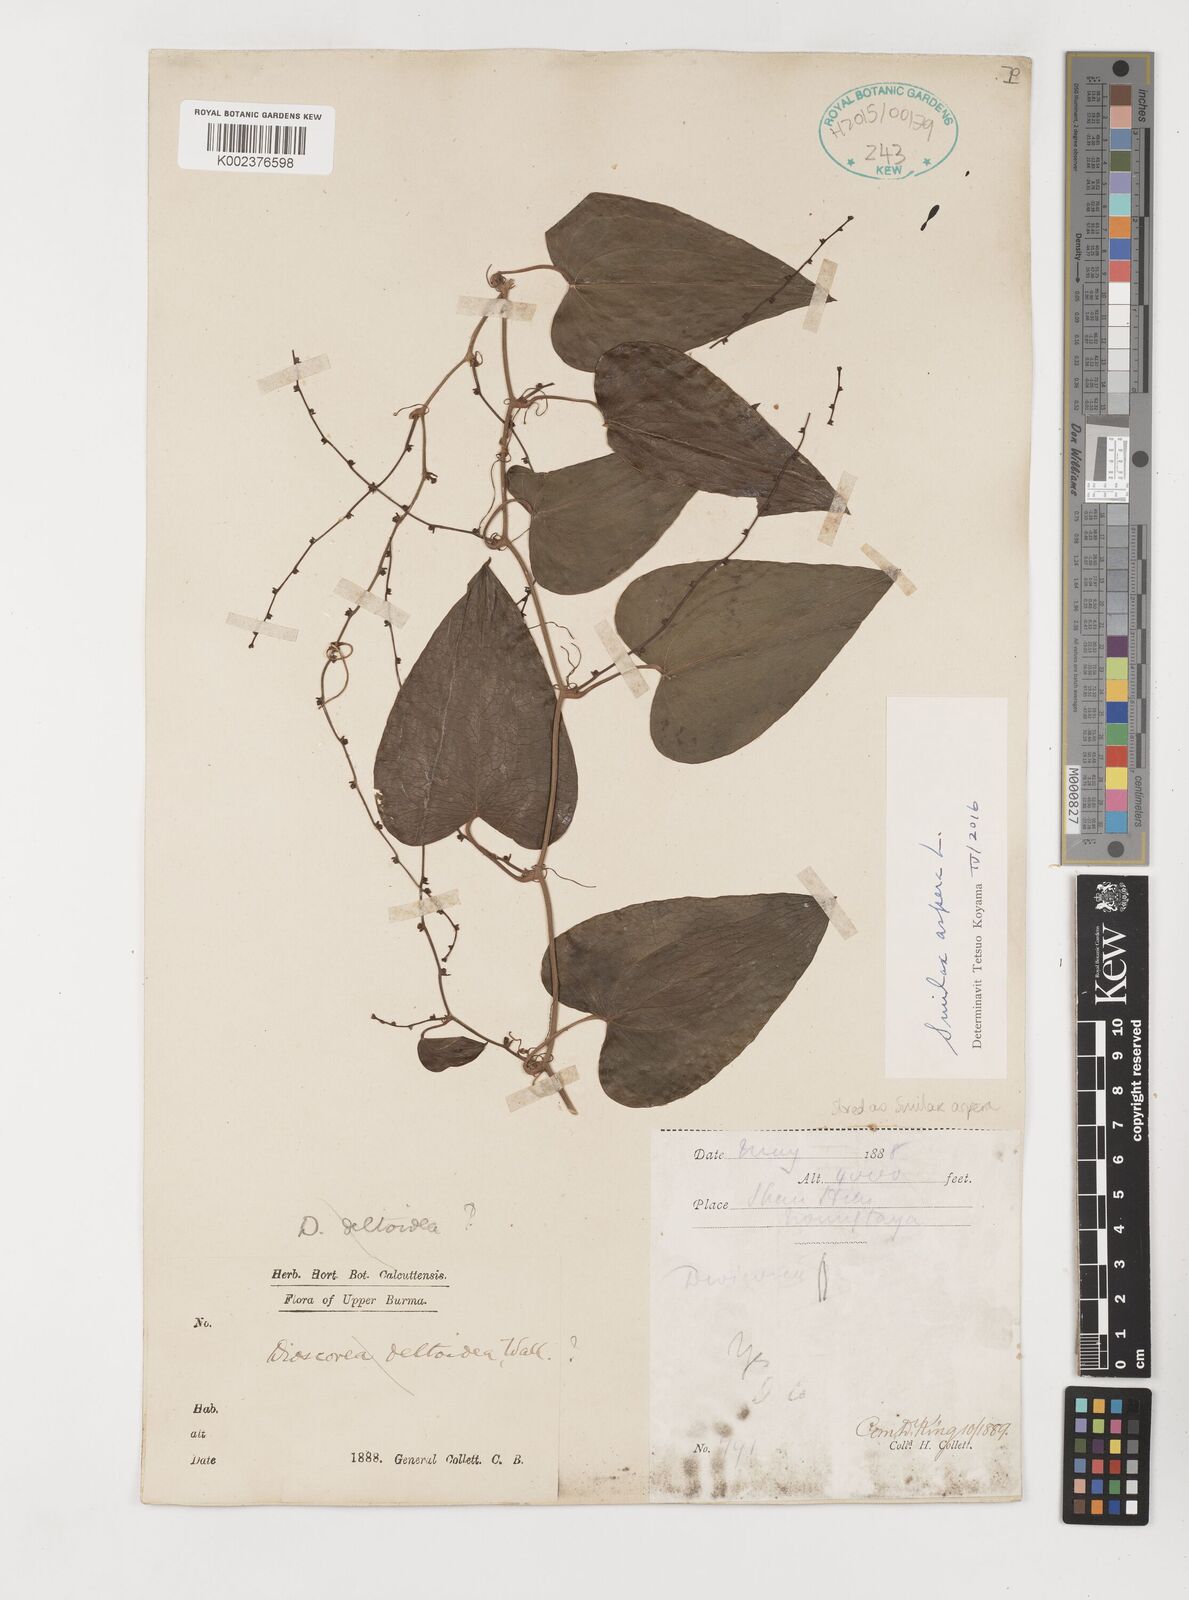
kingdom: Plantae
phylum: Tracheophyta
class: Liliopsida
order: Liliales
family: Smilacaceae
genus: Smilax
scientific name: Smilax aspera
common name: Common smilax
